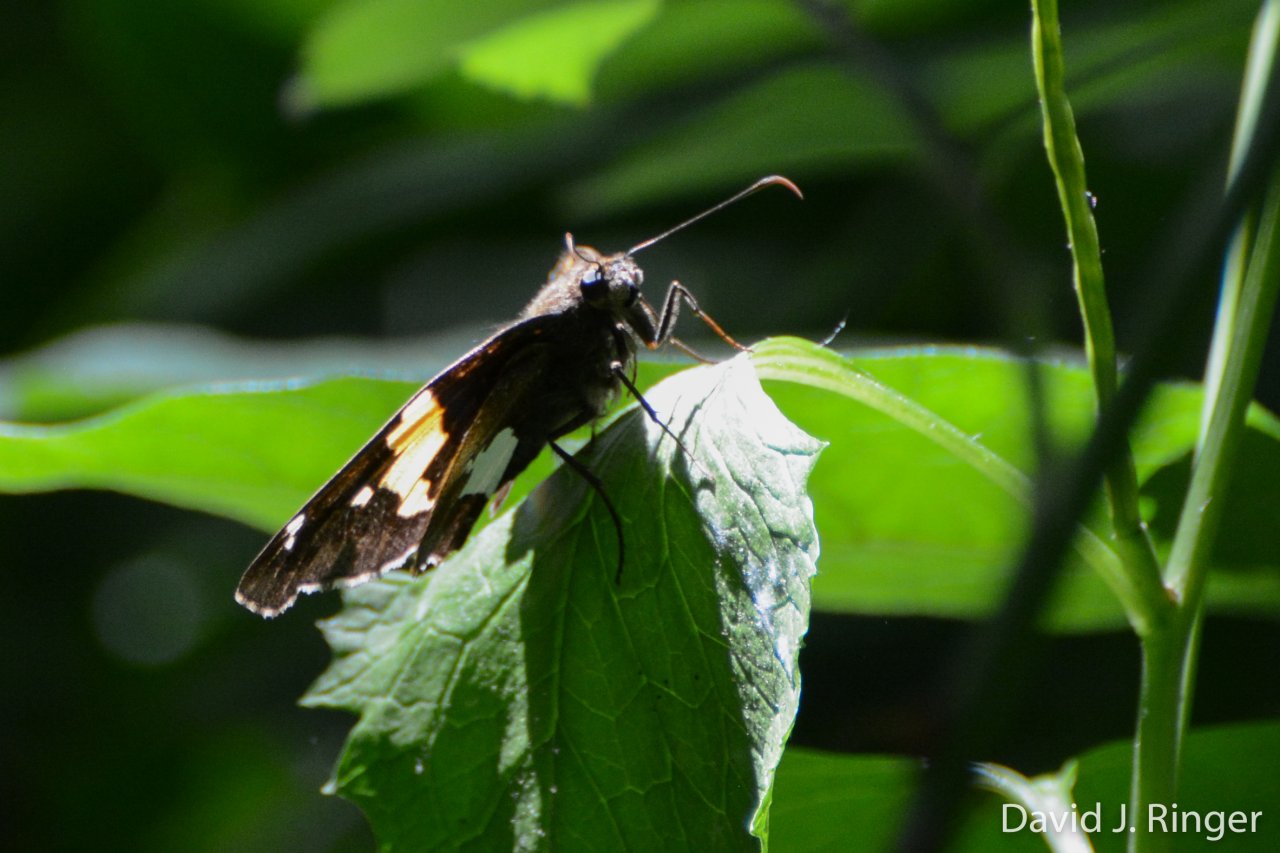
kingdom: Animalia
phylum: Arthropoda
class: Insecta
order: Lepidoptera
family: Hesperiidae
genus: Epargyreus
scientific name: Epargyreus clarus
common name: Silver-spotted Skipper
